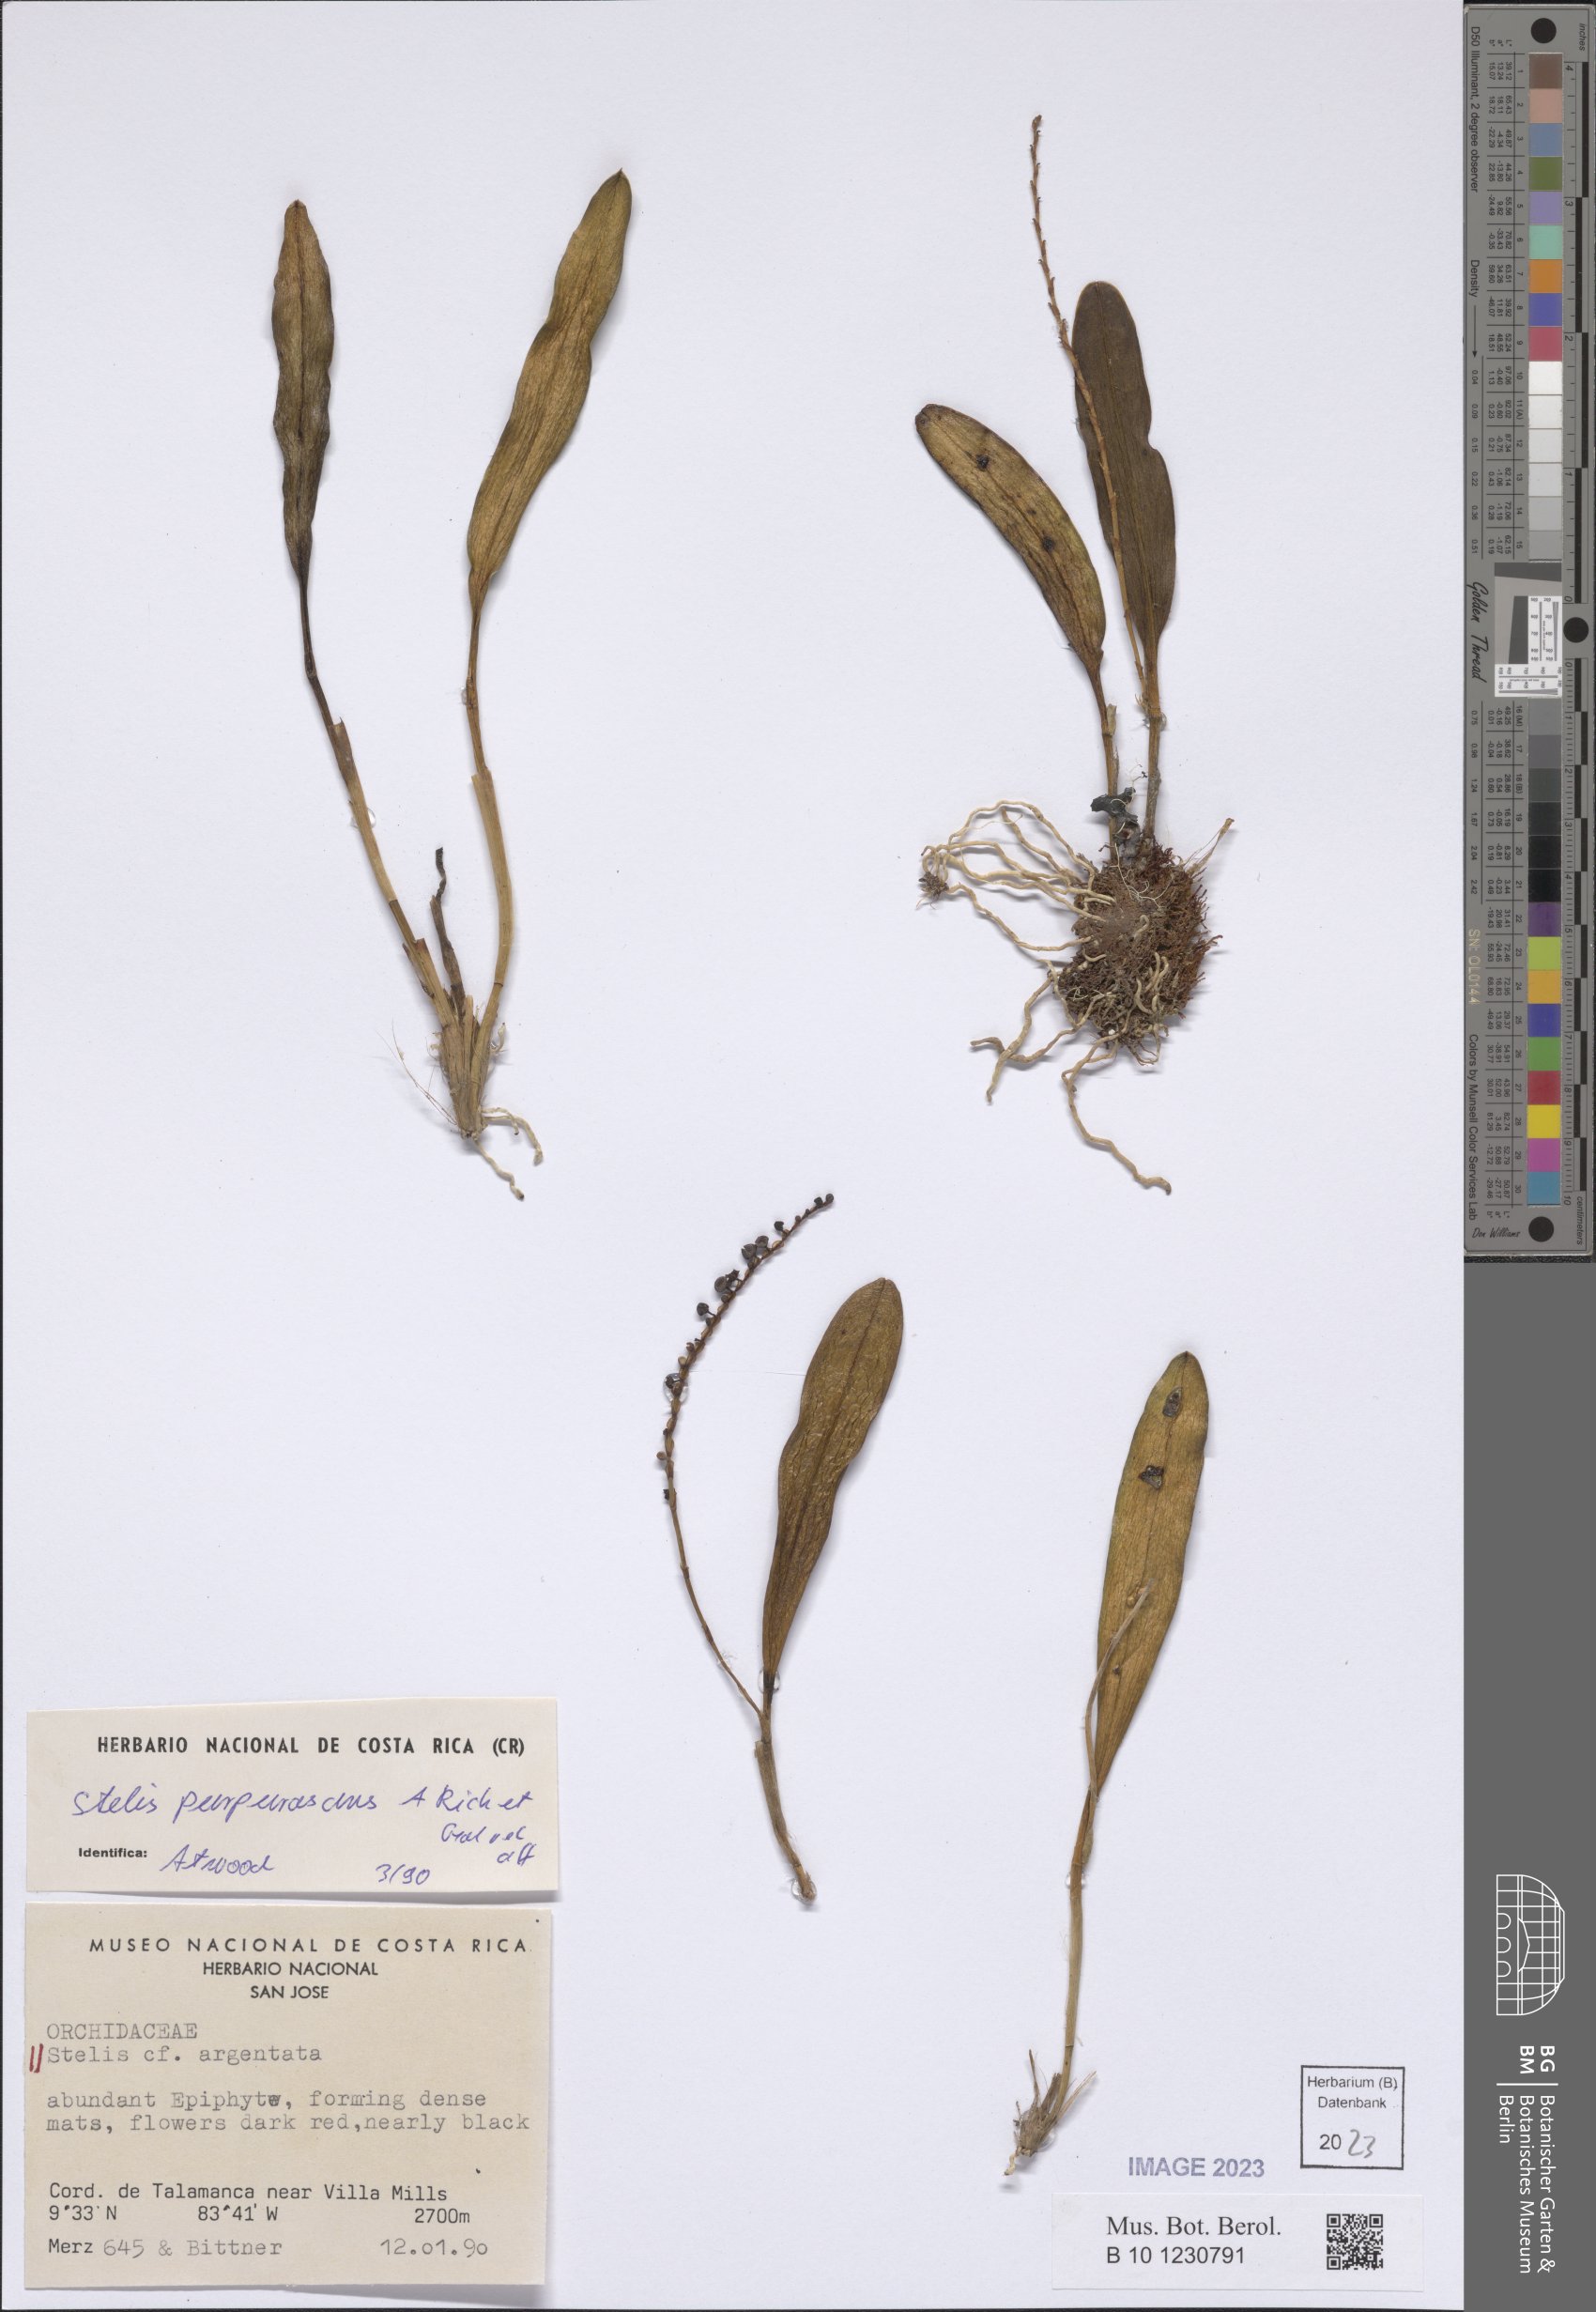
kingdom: Plantae
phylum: Tracheophyta
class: Liliopsida
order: Asparagales
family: Orchidaceae
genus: Stelis
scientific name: Stelis purpurascens
